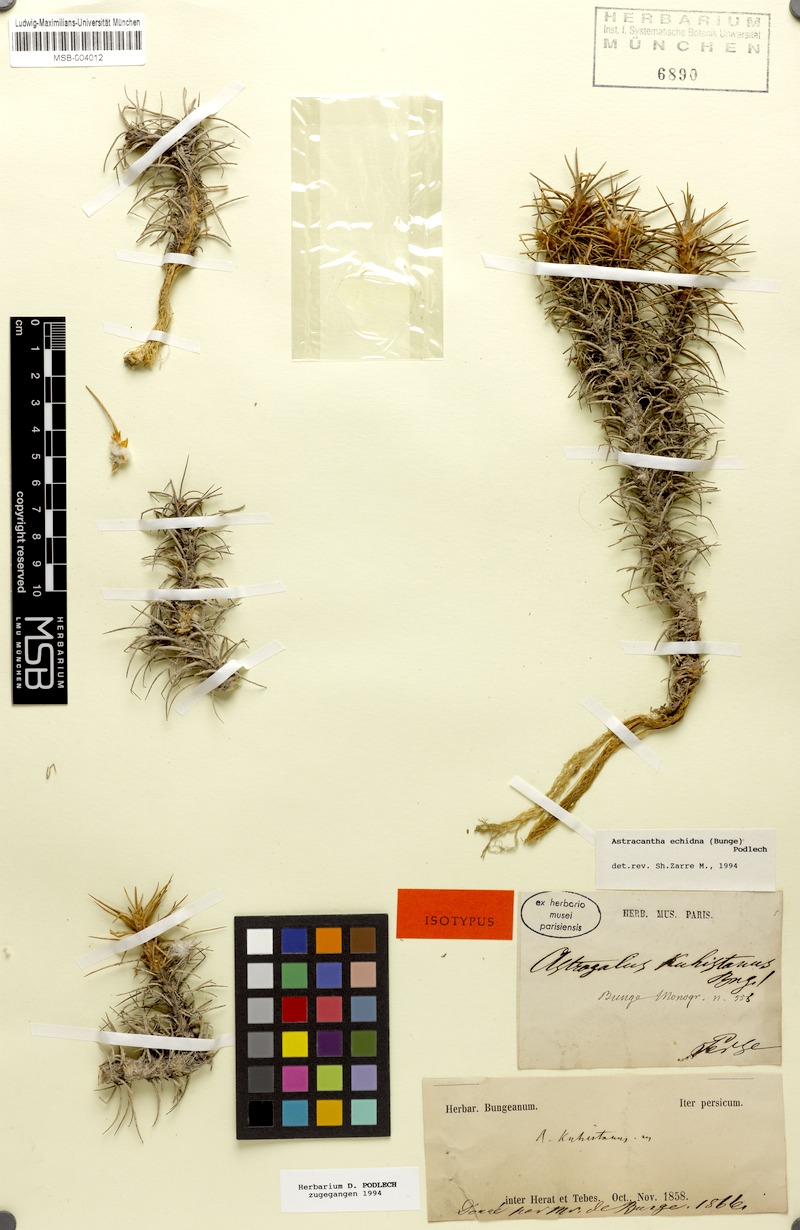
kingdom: Plantae
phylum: Tracheophyta
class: Magnoliopsida
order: Fabales
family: Fabaceae
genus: Astragalus
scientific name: Astragalus echidna
